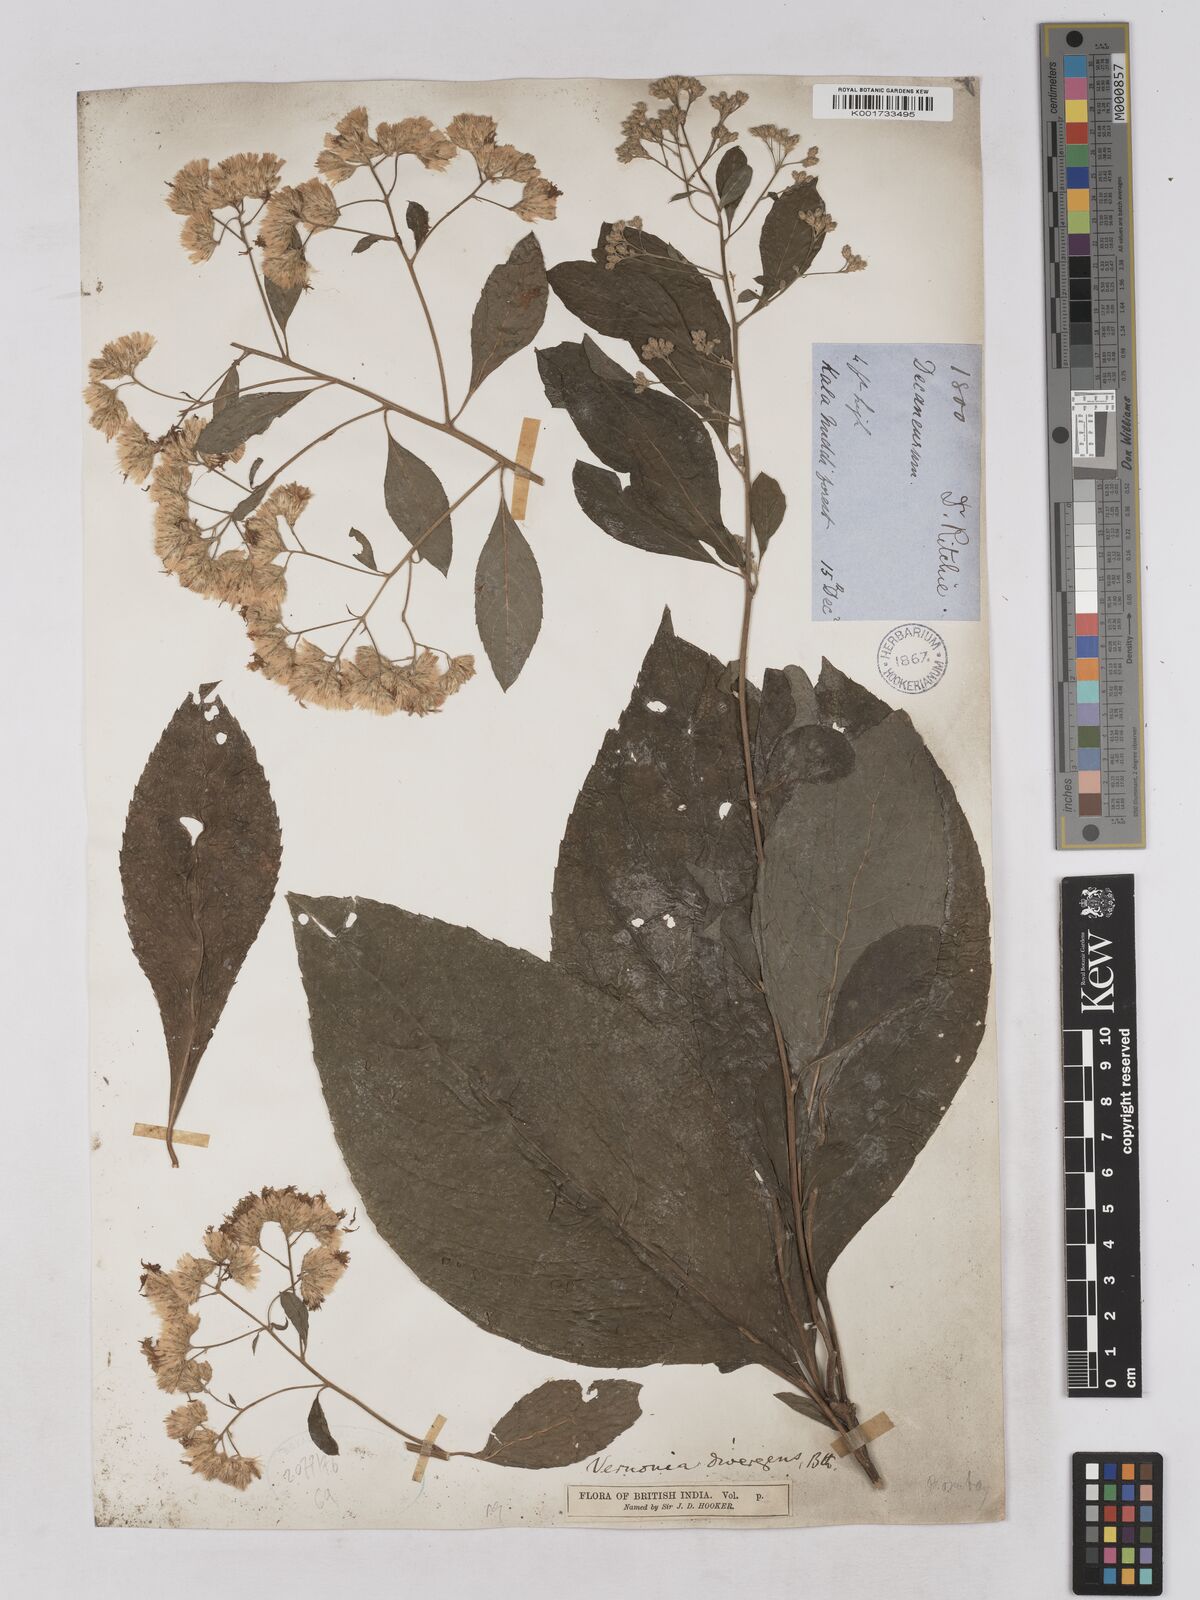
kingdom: Plantae
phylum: Tracheophyta
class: Magnoliopsida
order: Asterales
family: Asteraceae
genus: Acilepis
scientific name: Acilepis divergens
